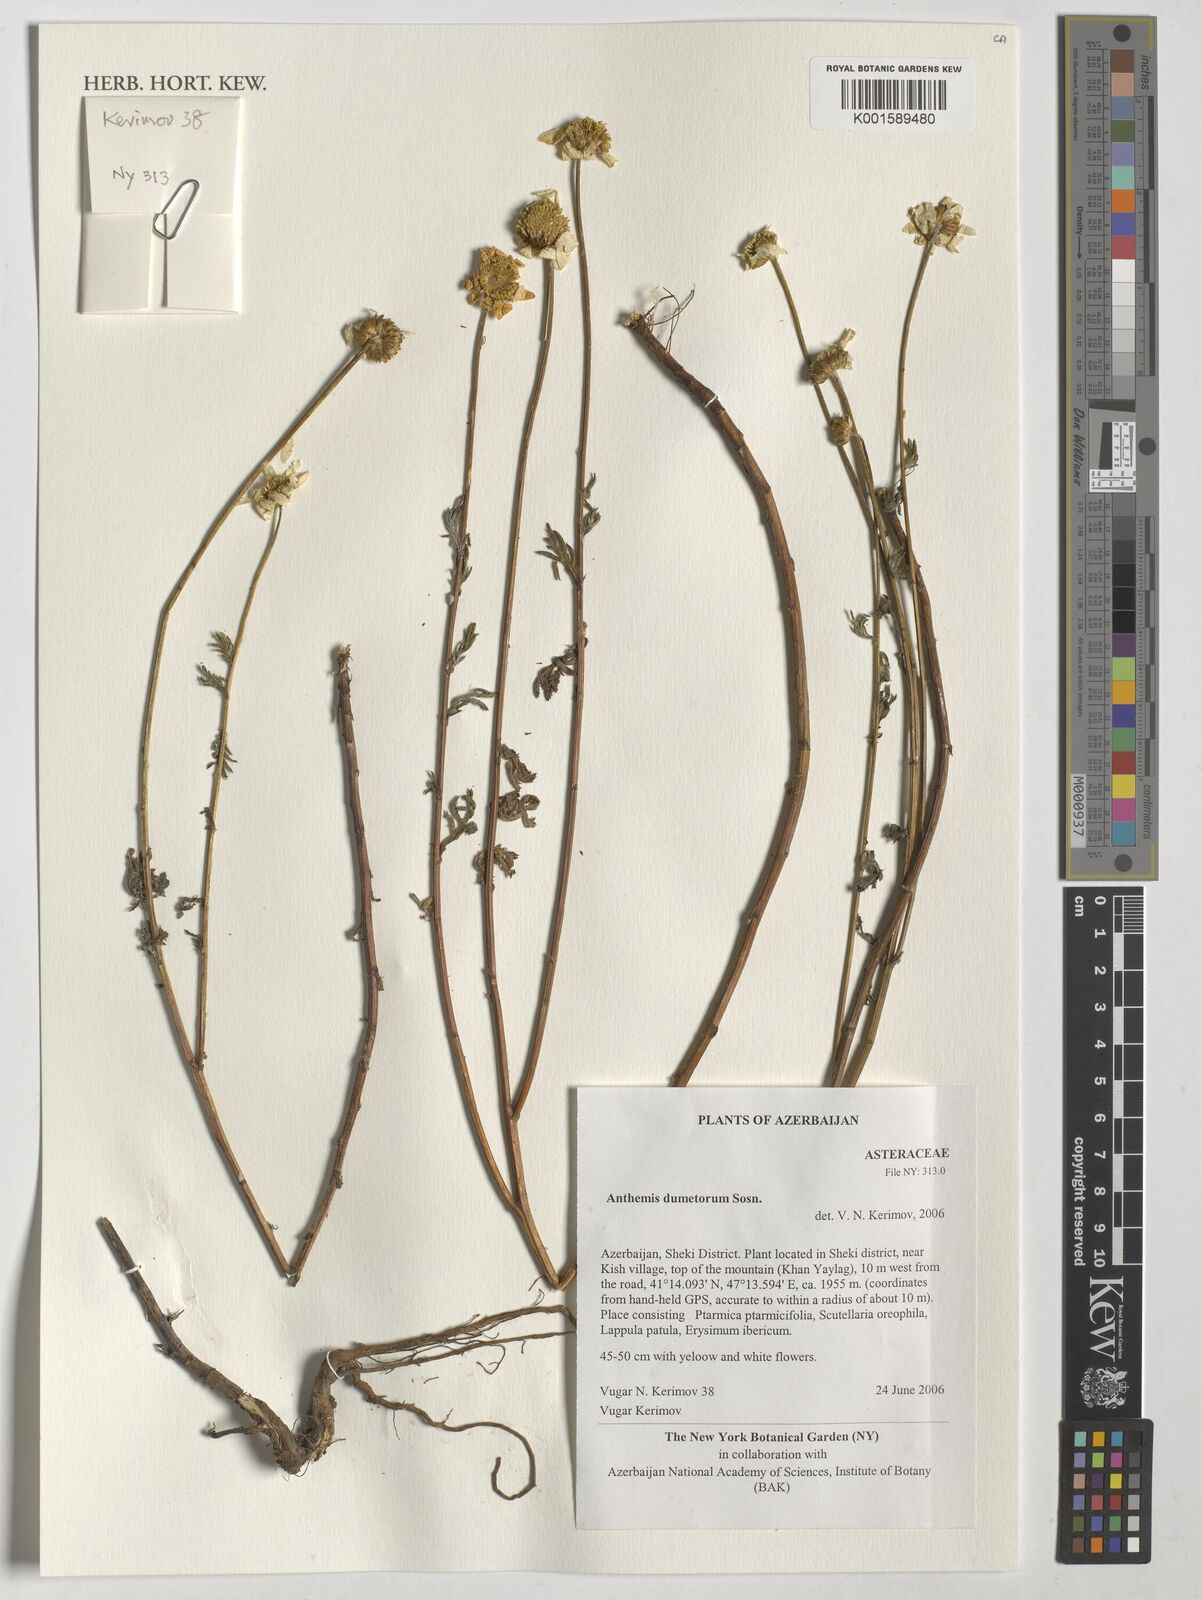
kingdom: Plantae
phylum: Tracheophyta
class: Magnoliopsida
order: Asterales
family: Asteraceae
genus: Cota
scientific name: Cota triumfetti
